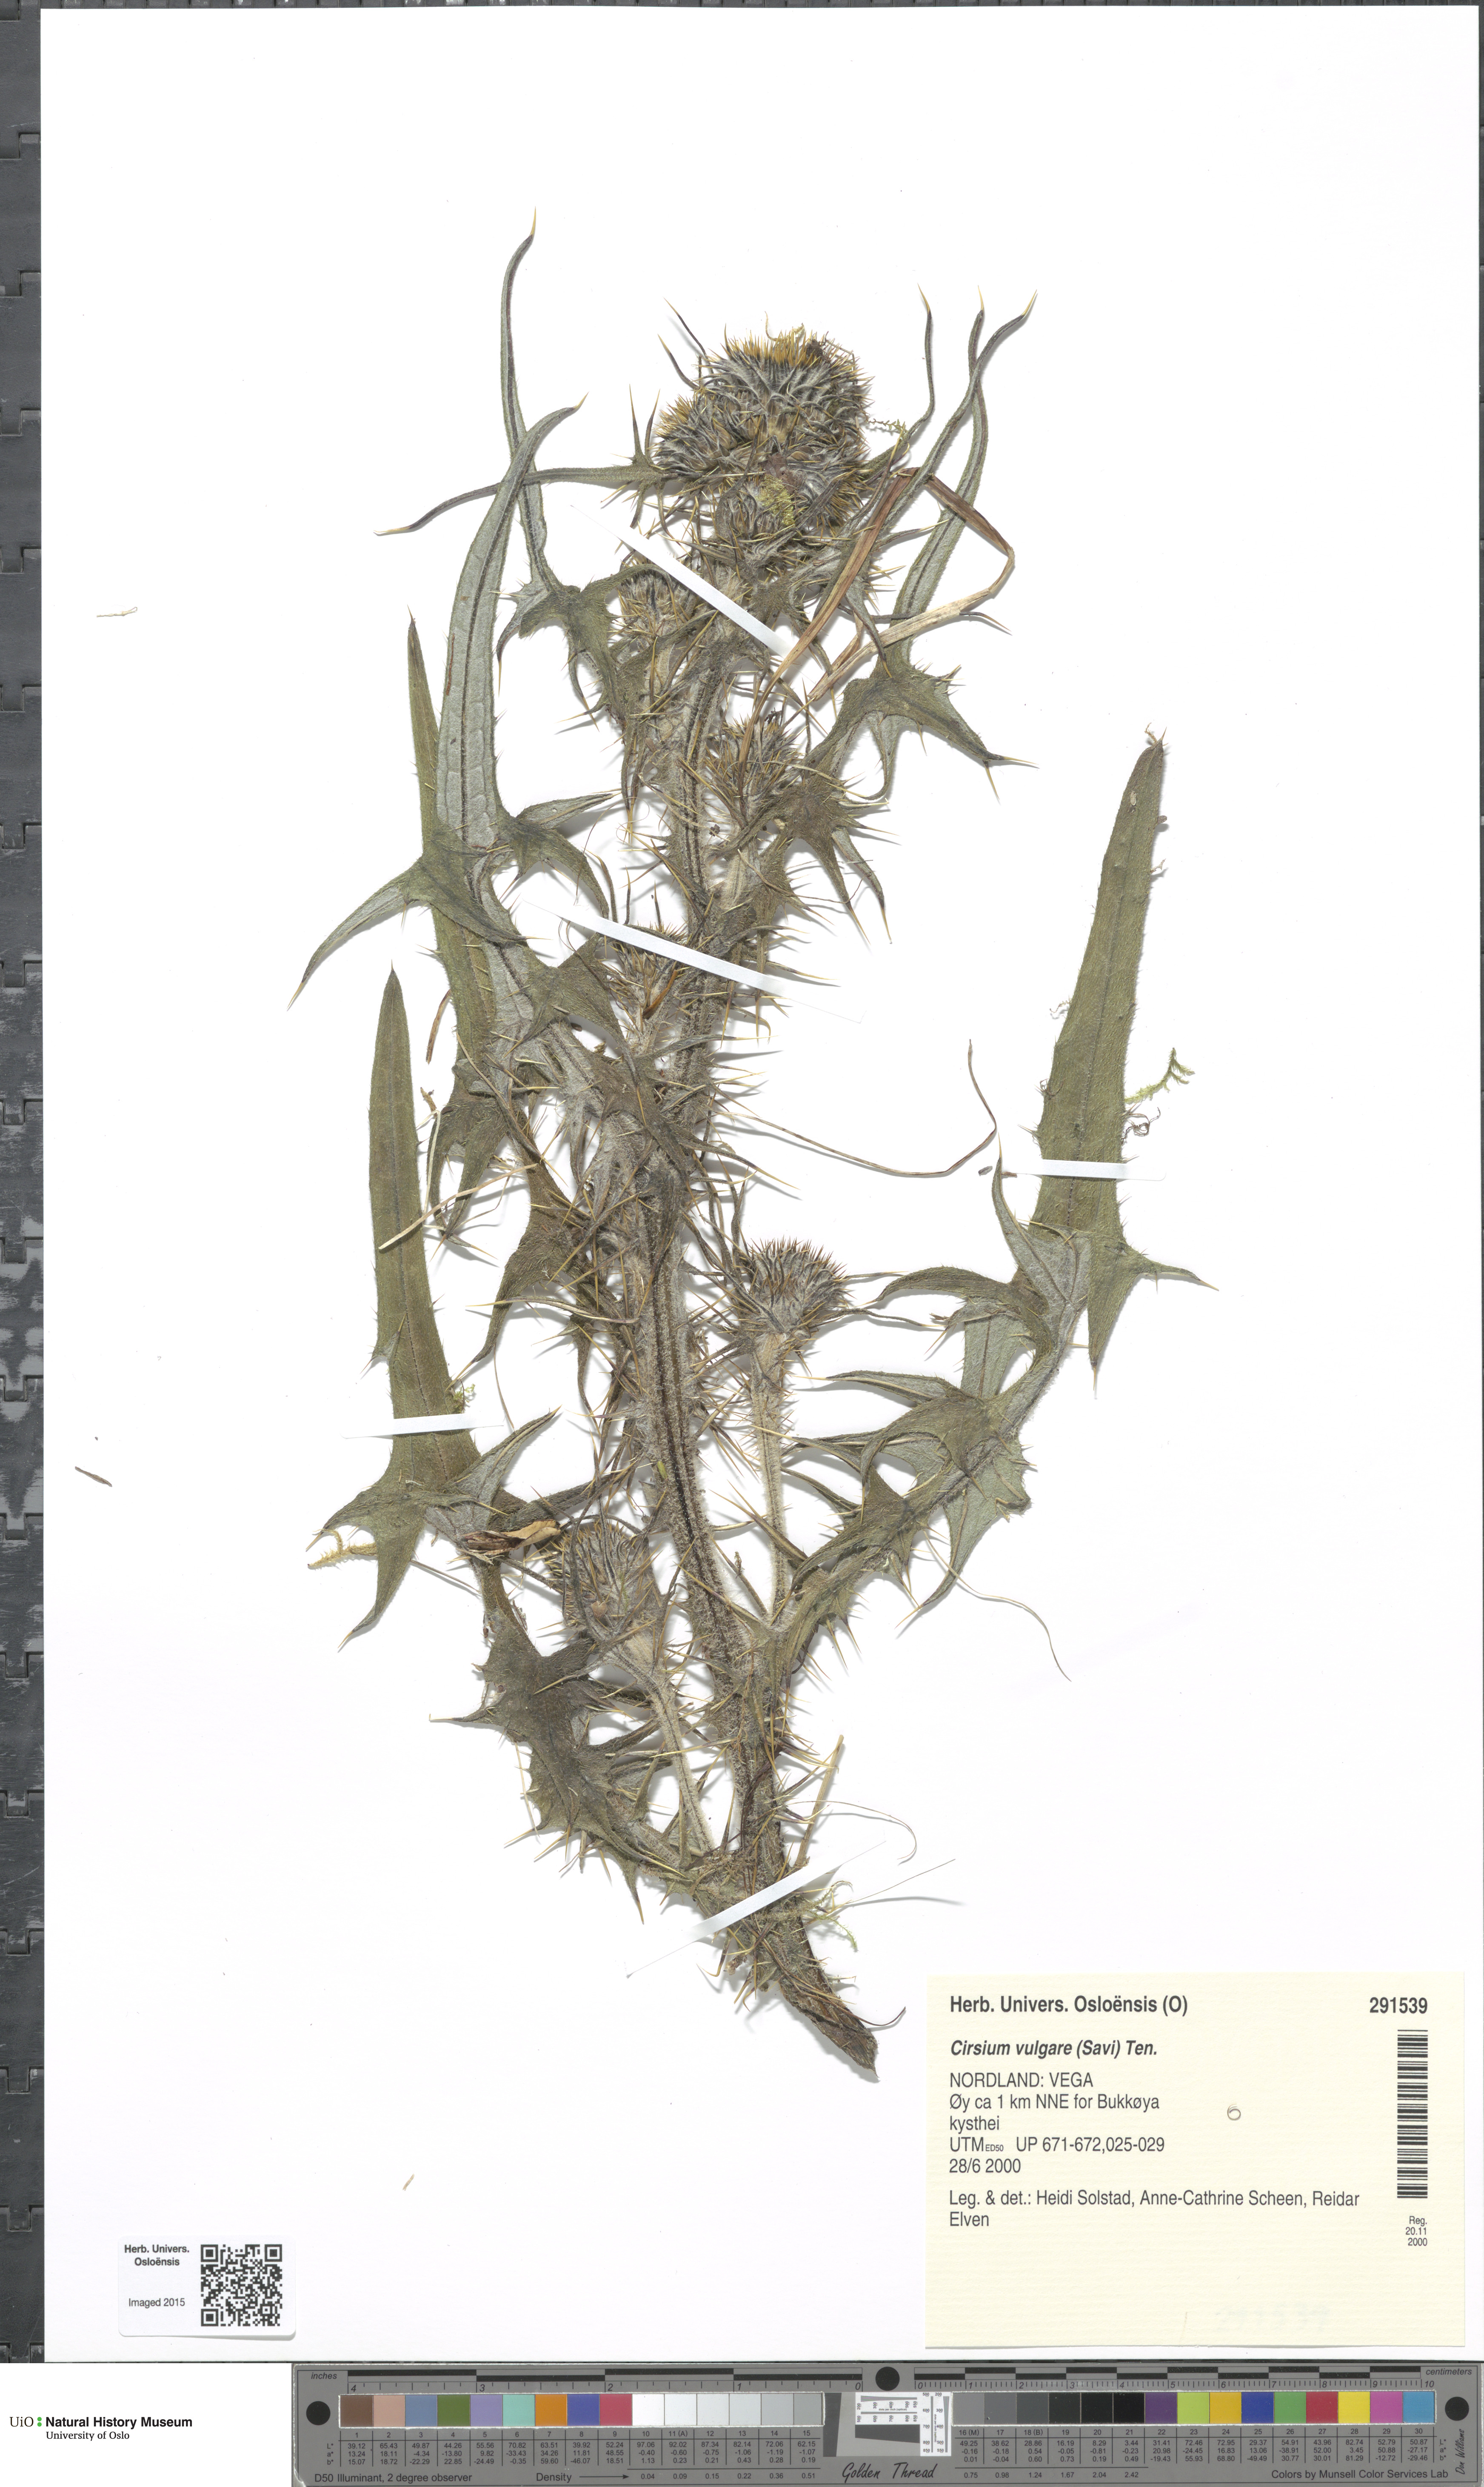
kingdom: Plantae
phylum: Tracheophyta
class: Magnoliopsida
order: Asterales
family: Asteraceae
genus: Cirsium
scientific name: Cirsium vulgare
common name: Bull thistle
